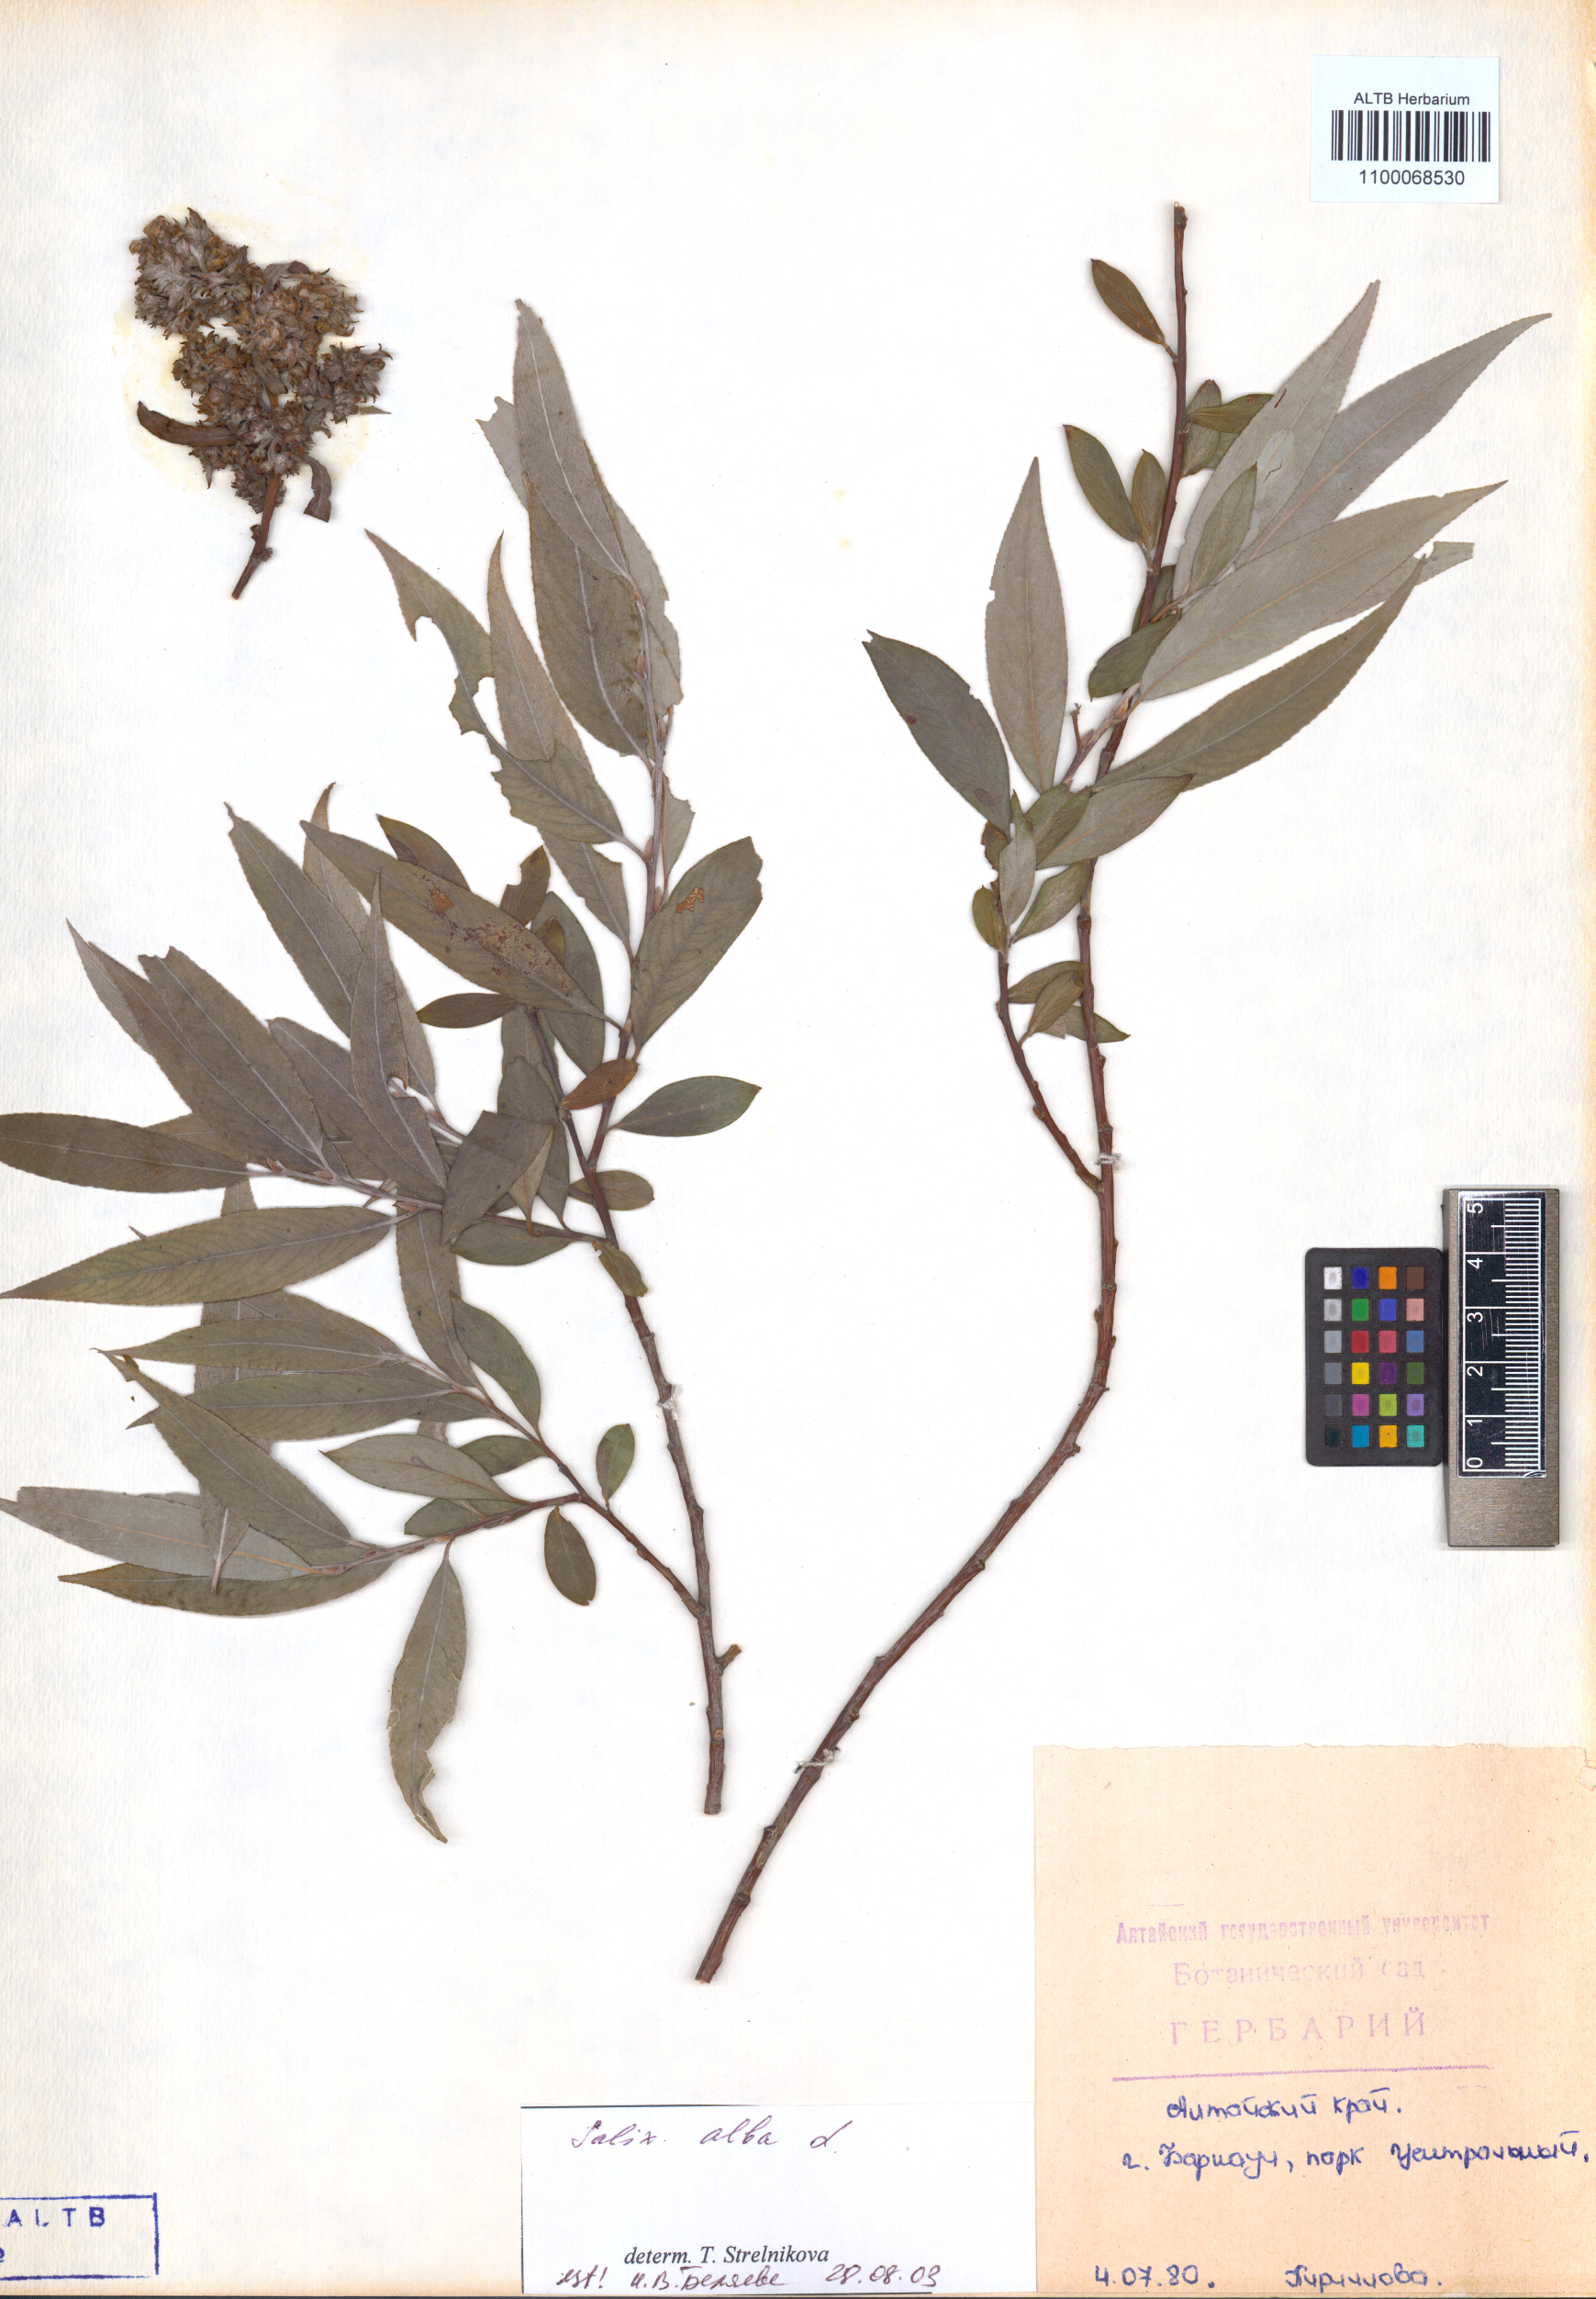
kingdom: Plantae
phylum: Tracheophyta
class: Magnoliopsida
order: Malpighiales
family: Salicaceae
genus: Salix
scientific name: Salix alba
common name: White willow
